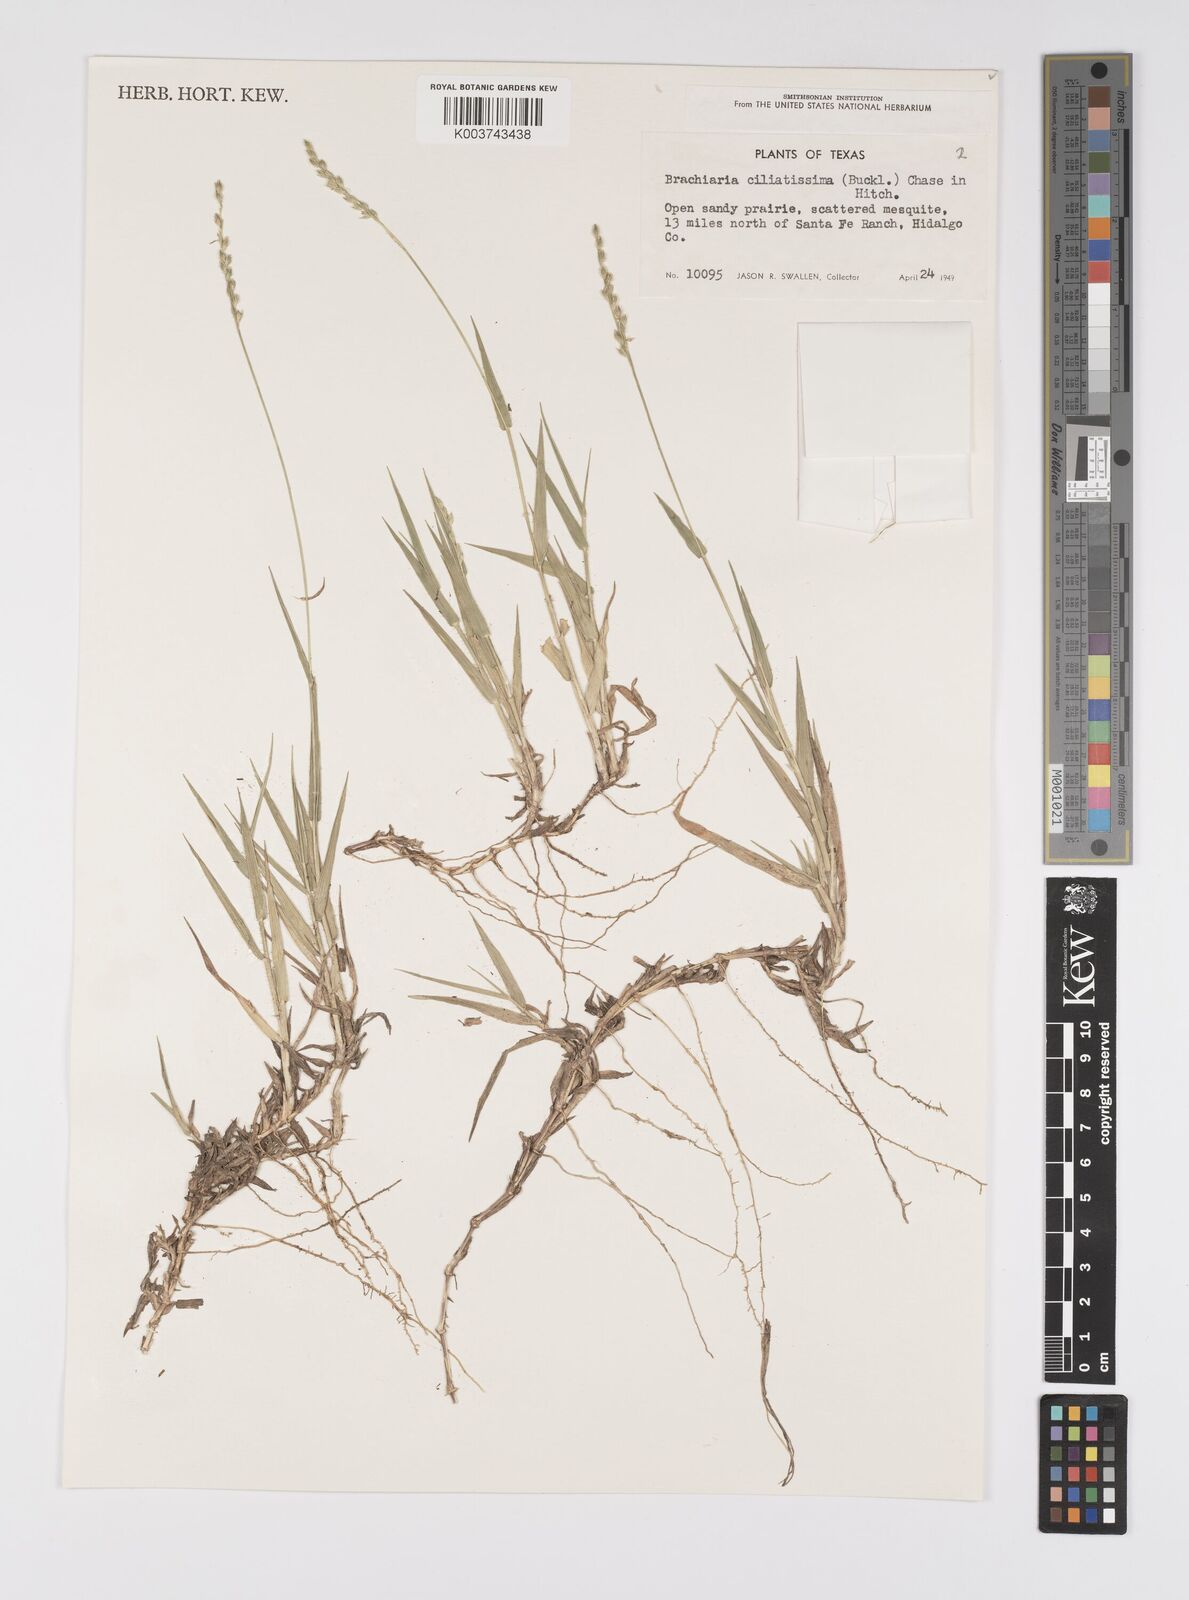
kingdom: Plantae
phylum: Tracheophyta
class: Liliopsida
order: Poales
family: Poaceae
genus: Urochloa
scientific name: Urochloa ciliatissima
